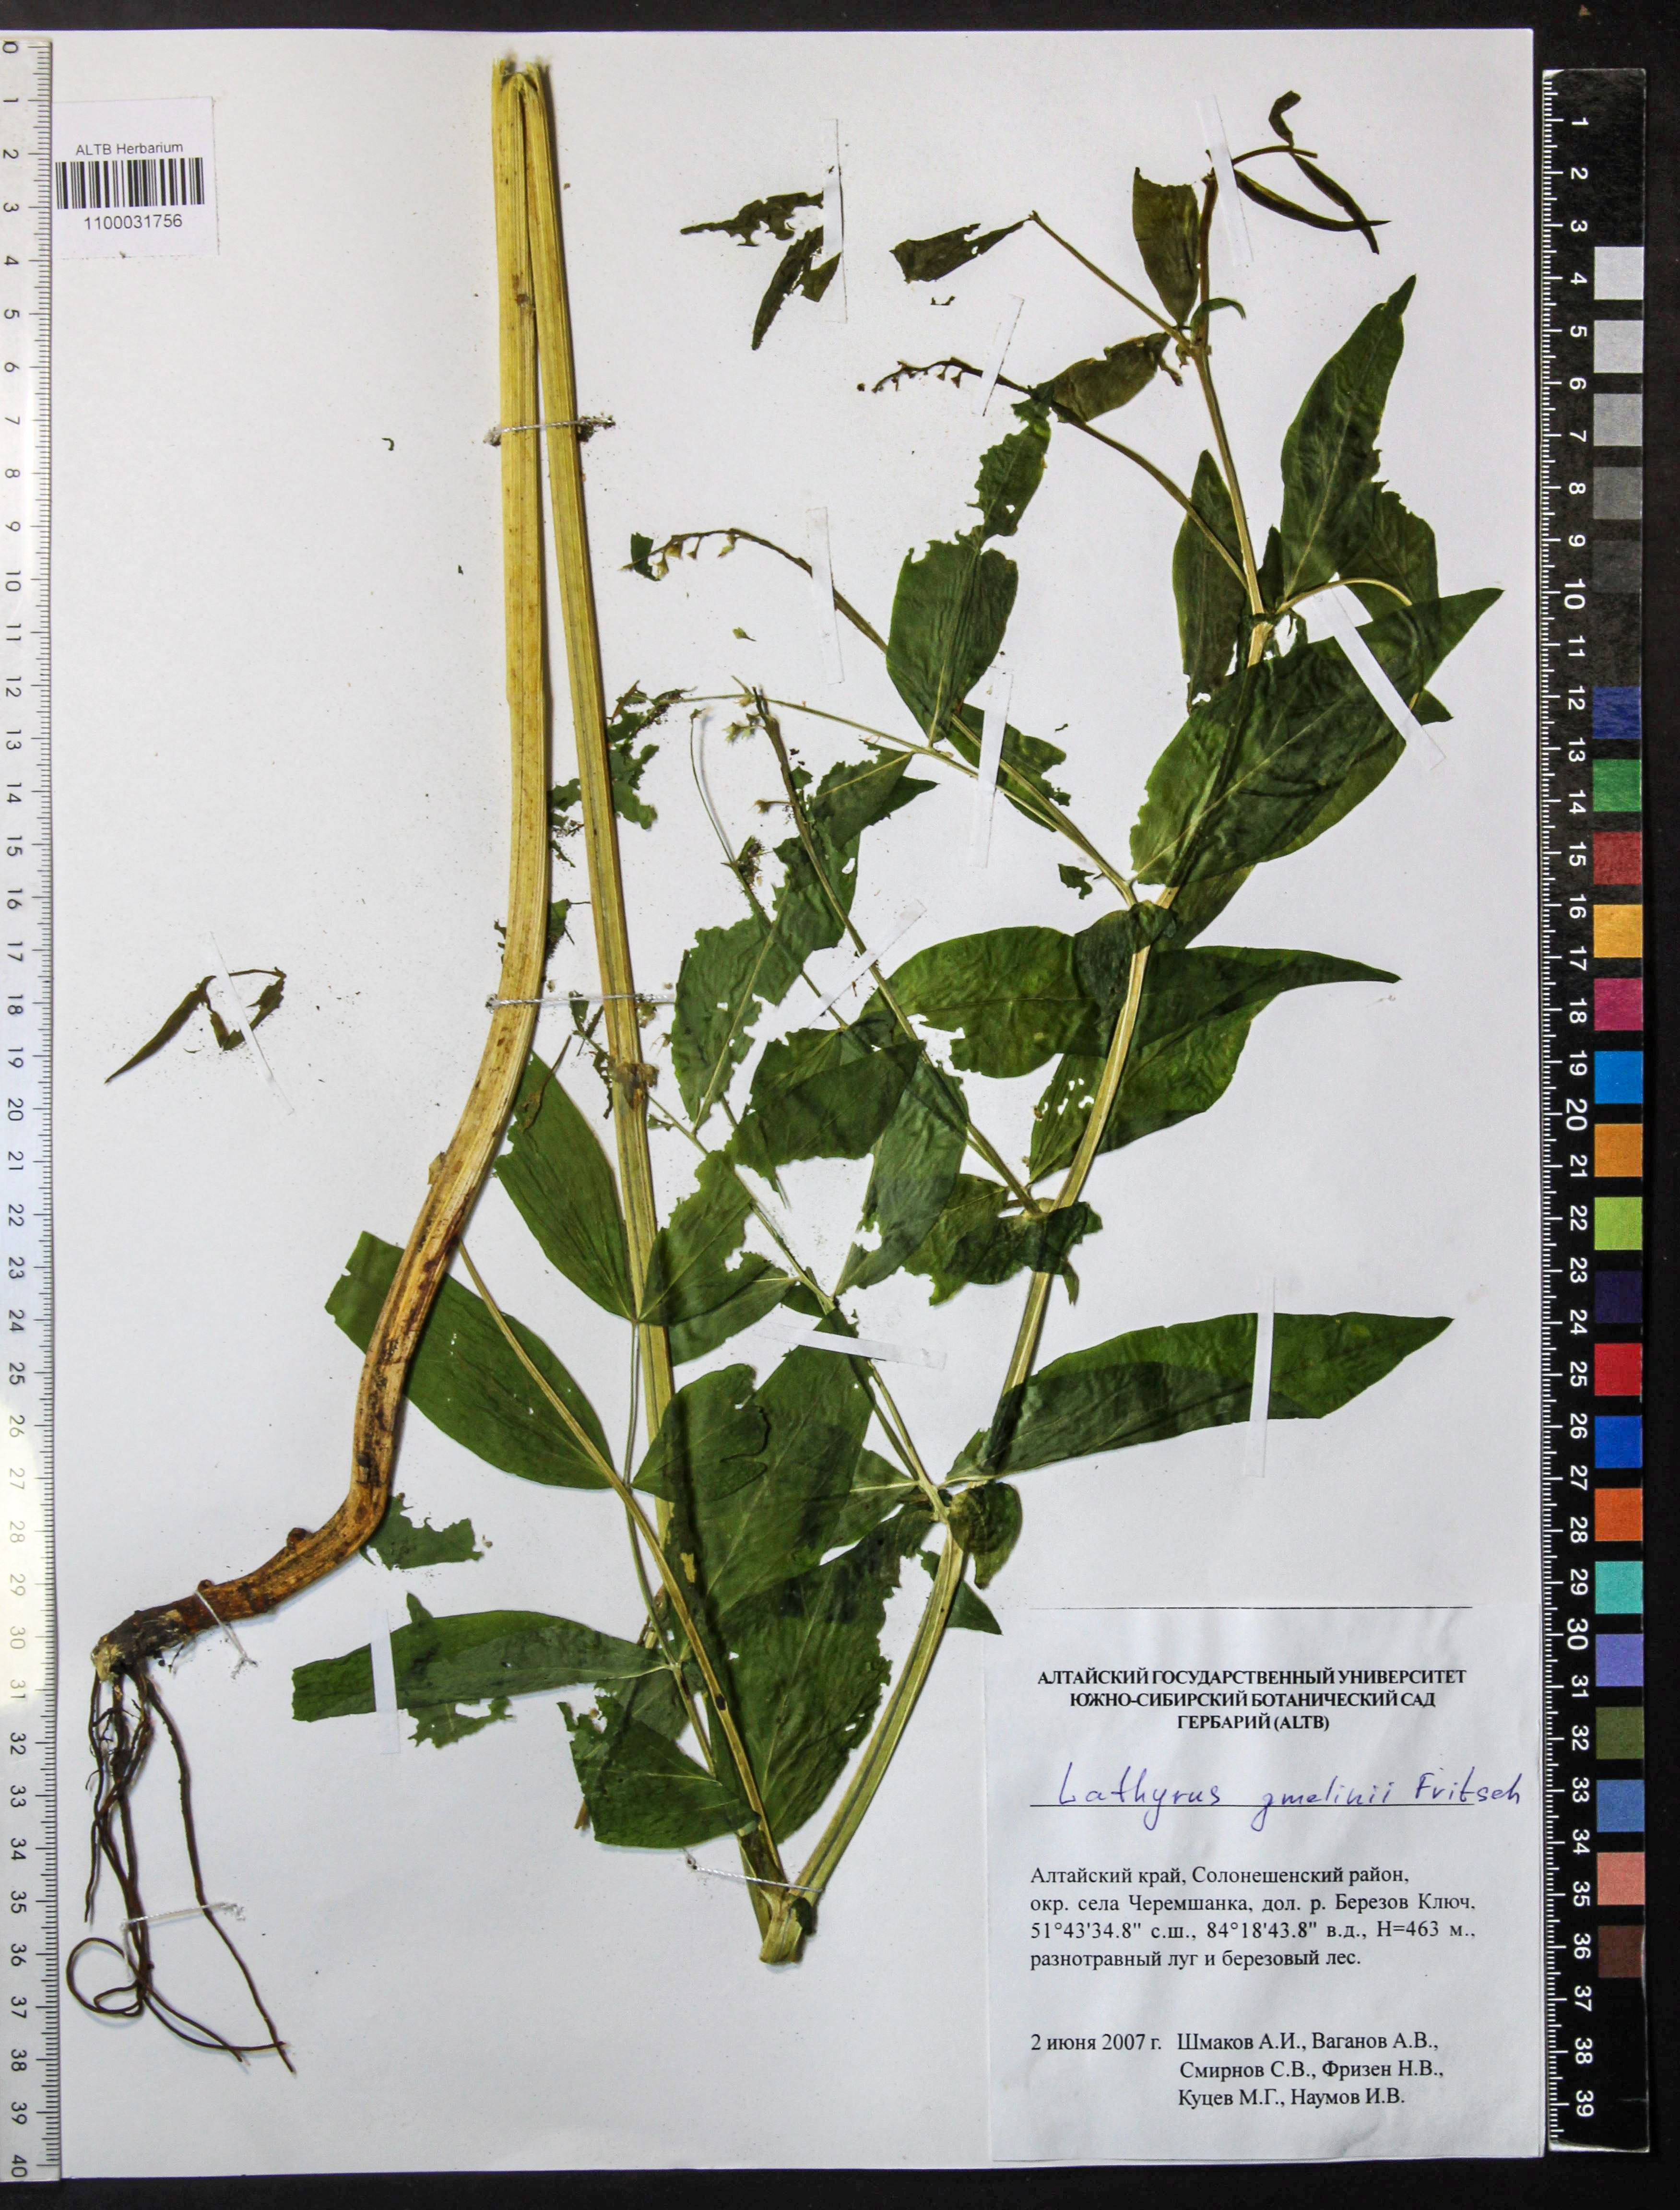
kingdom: Plantae
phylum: Tracheophyta
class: Magnoliopsida
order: Fabales
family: Fabaceae
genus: Lathyrus
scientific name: Lathyrus gmelinii
